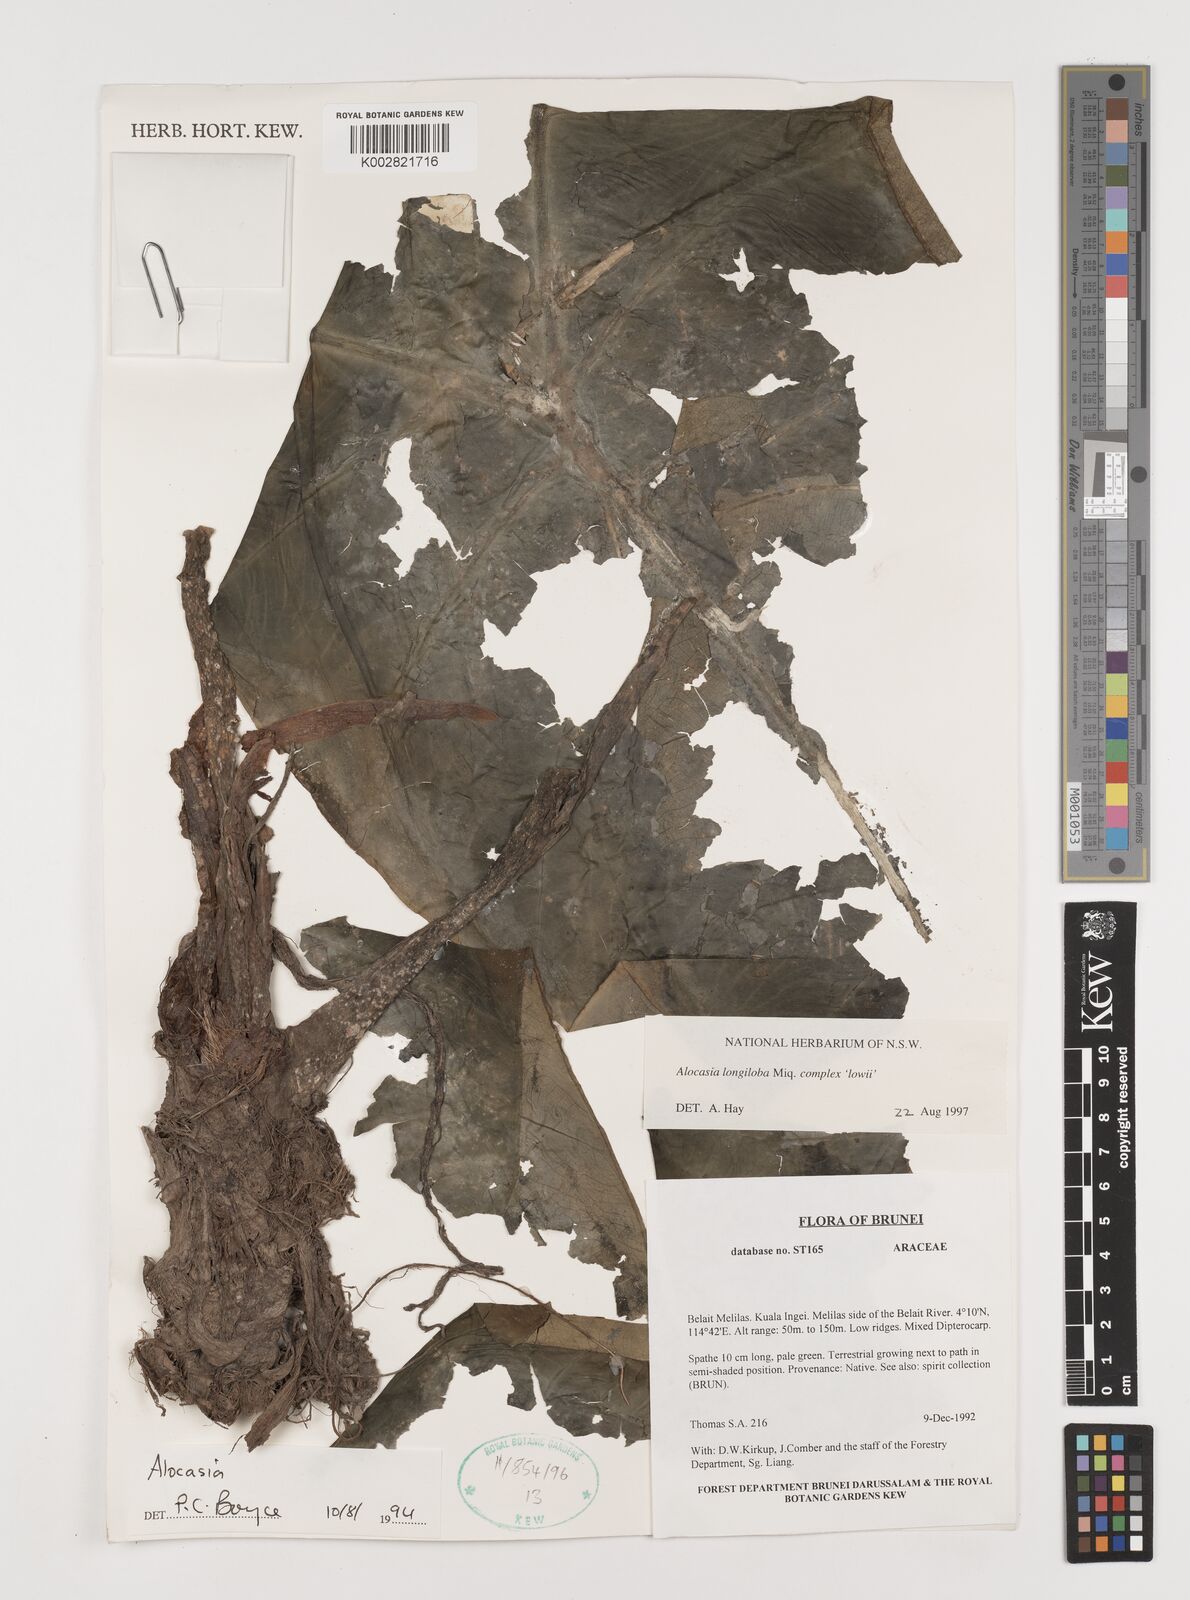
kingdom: Plantae
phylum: Tracheophyta
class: Liliopsida
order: Alismatales
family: Araceae
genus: Alocasia
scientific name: Alocasia longiloba
